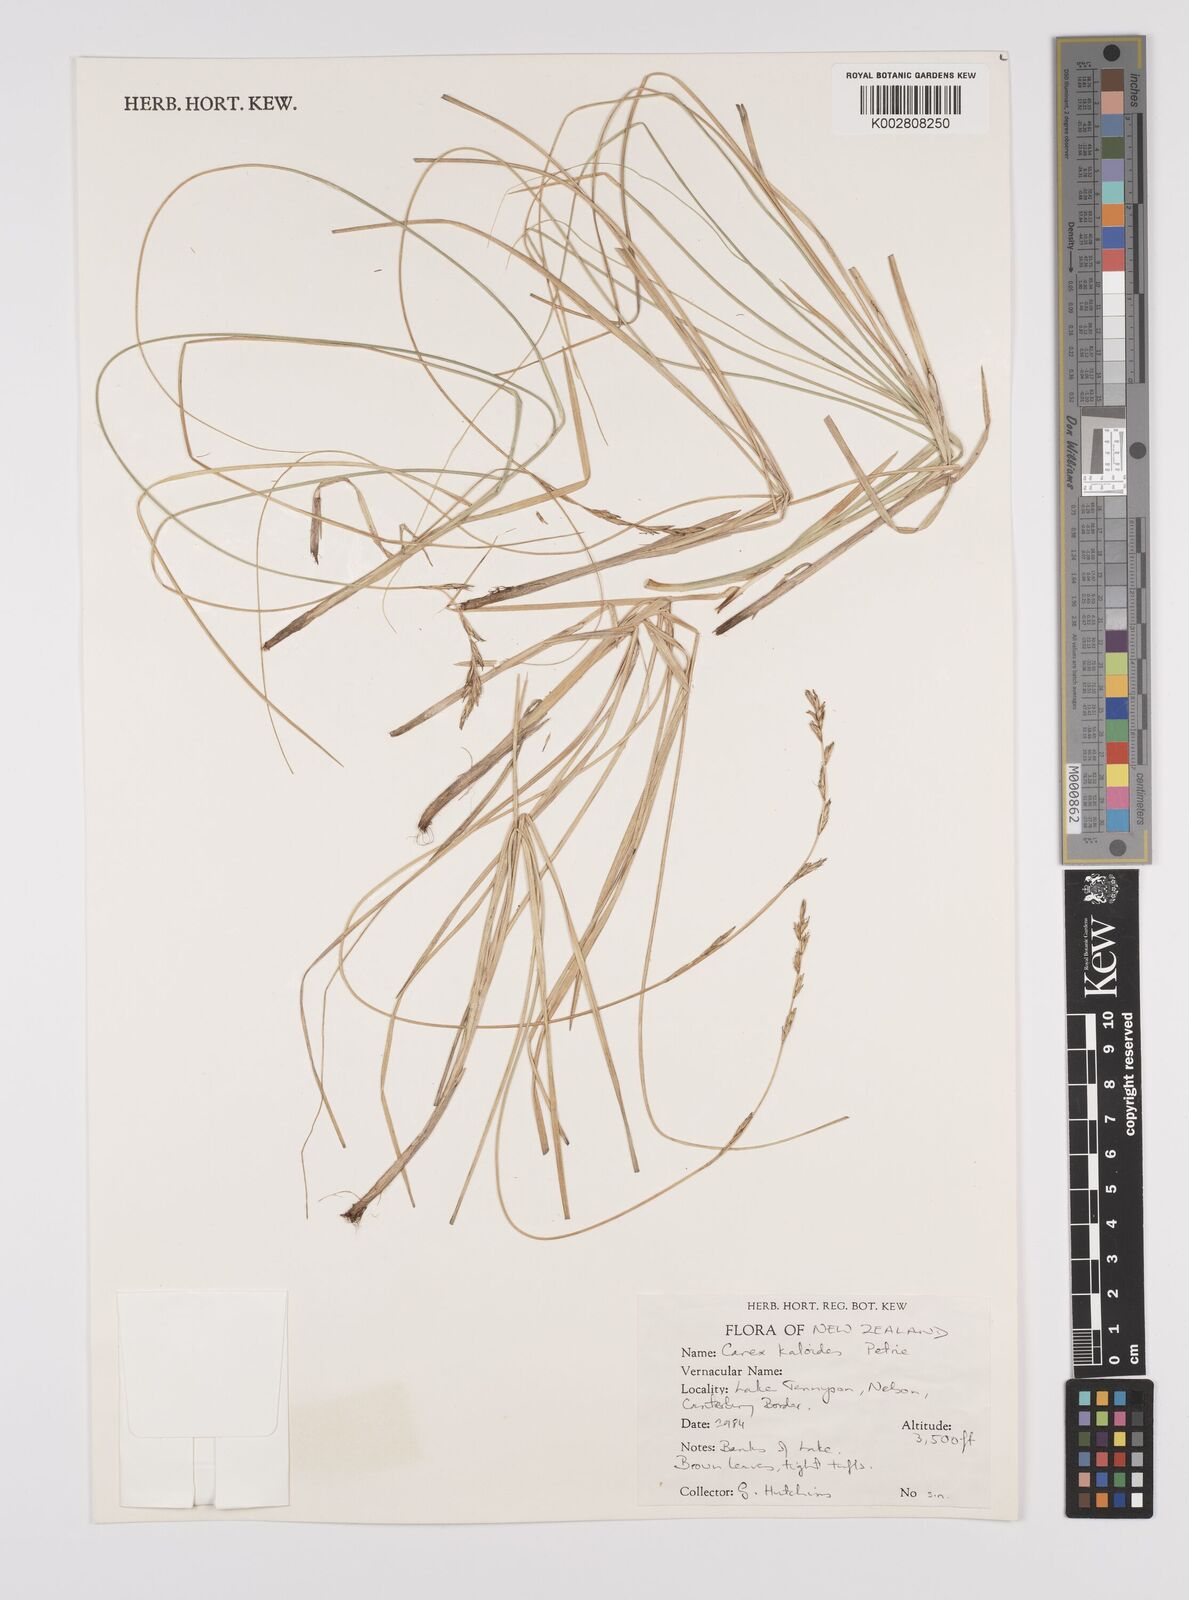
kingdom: Plantae
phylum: Tracheophyta
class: Liliopsida
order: Poales
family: Cyperaceae
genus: Carex
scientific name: Carex kaloides
